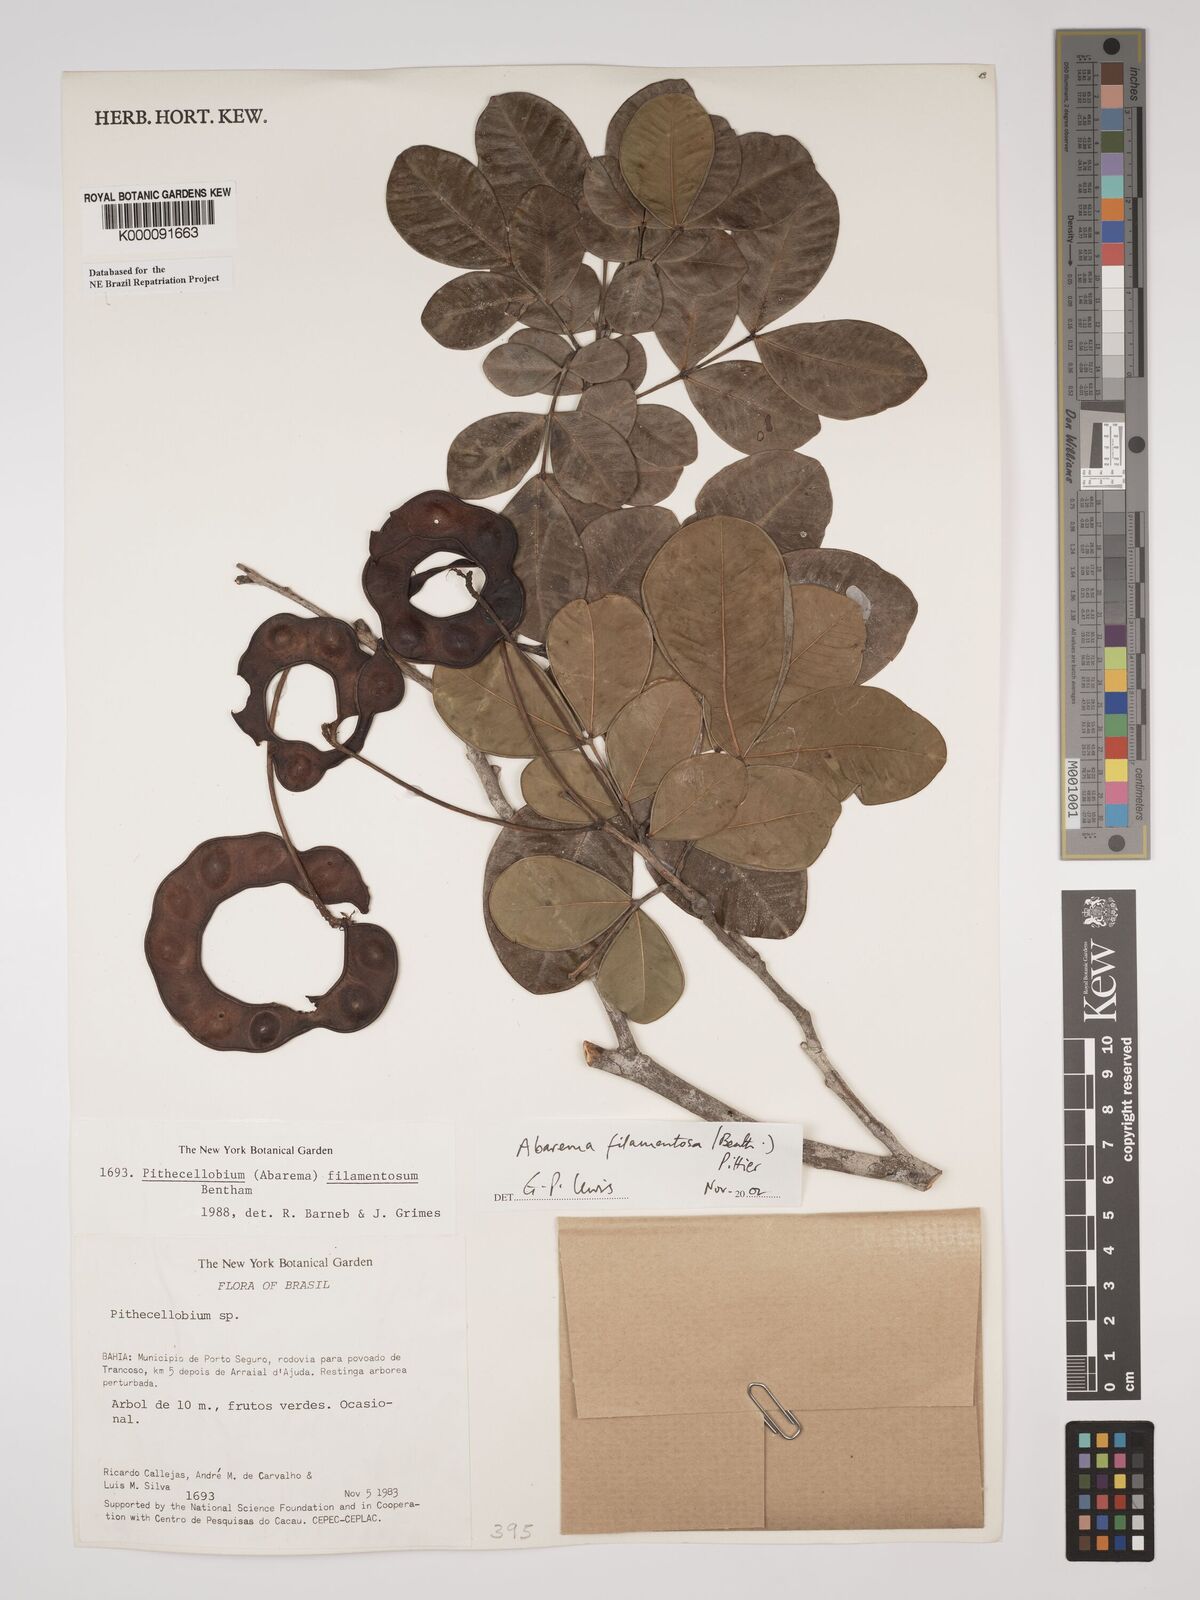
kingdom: Plantae
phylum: Tracheophyta
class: Magnoliopsida
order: Fabales
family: Fabaceae
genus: Jupunba
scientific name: Jupunba filamentosa
